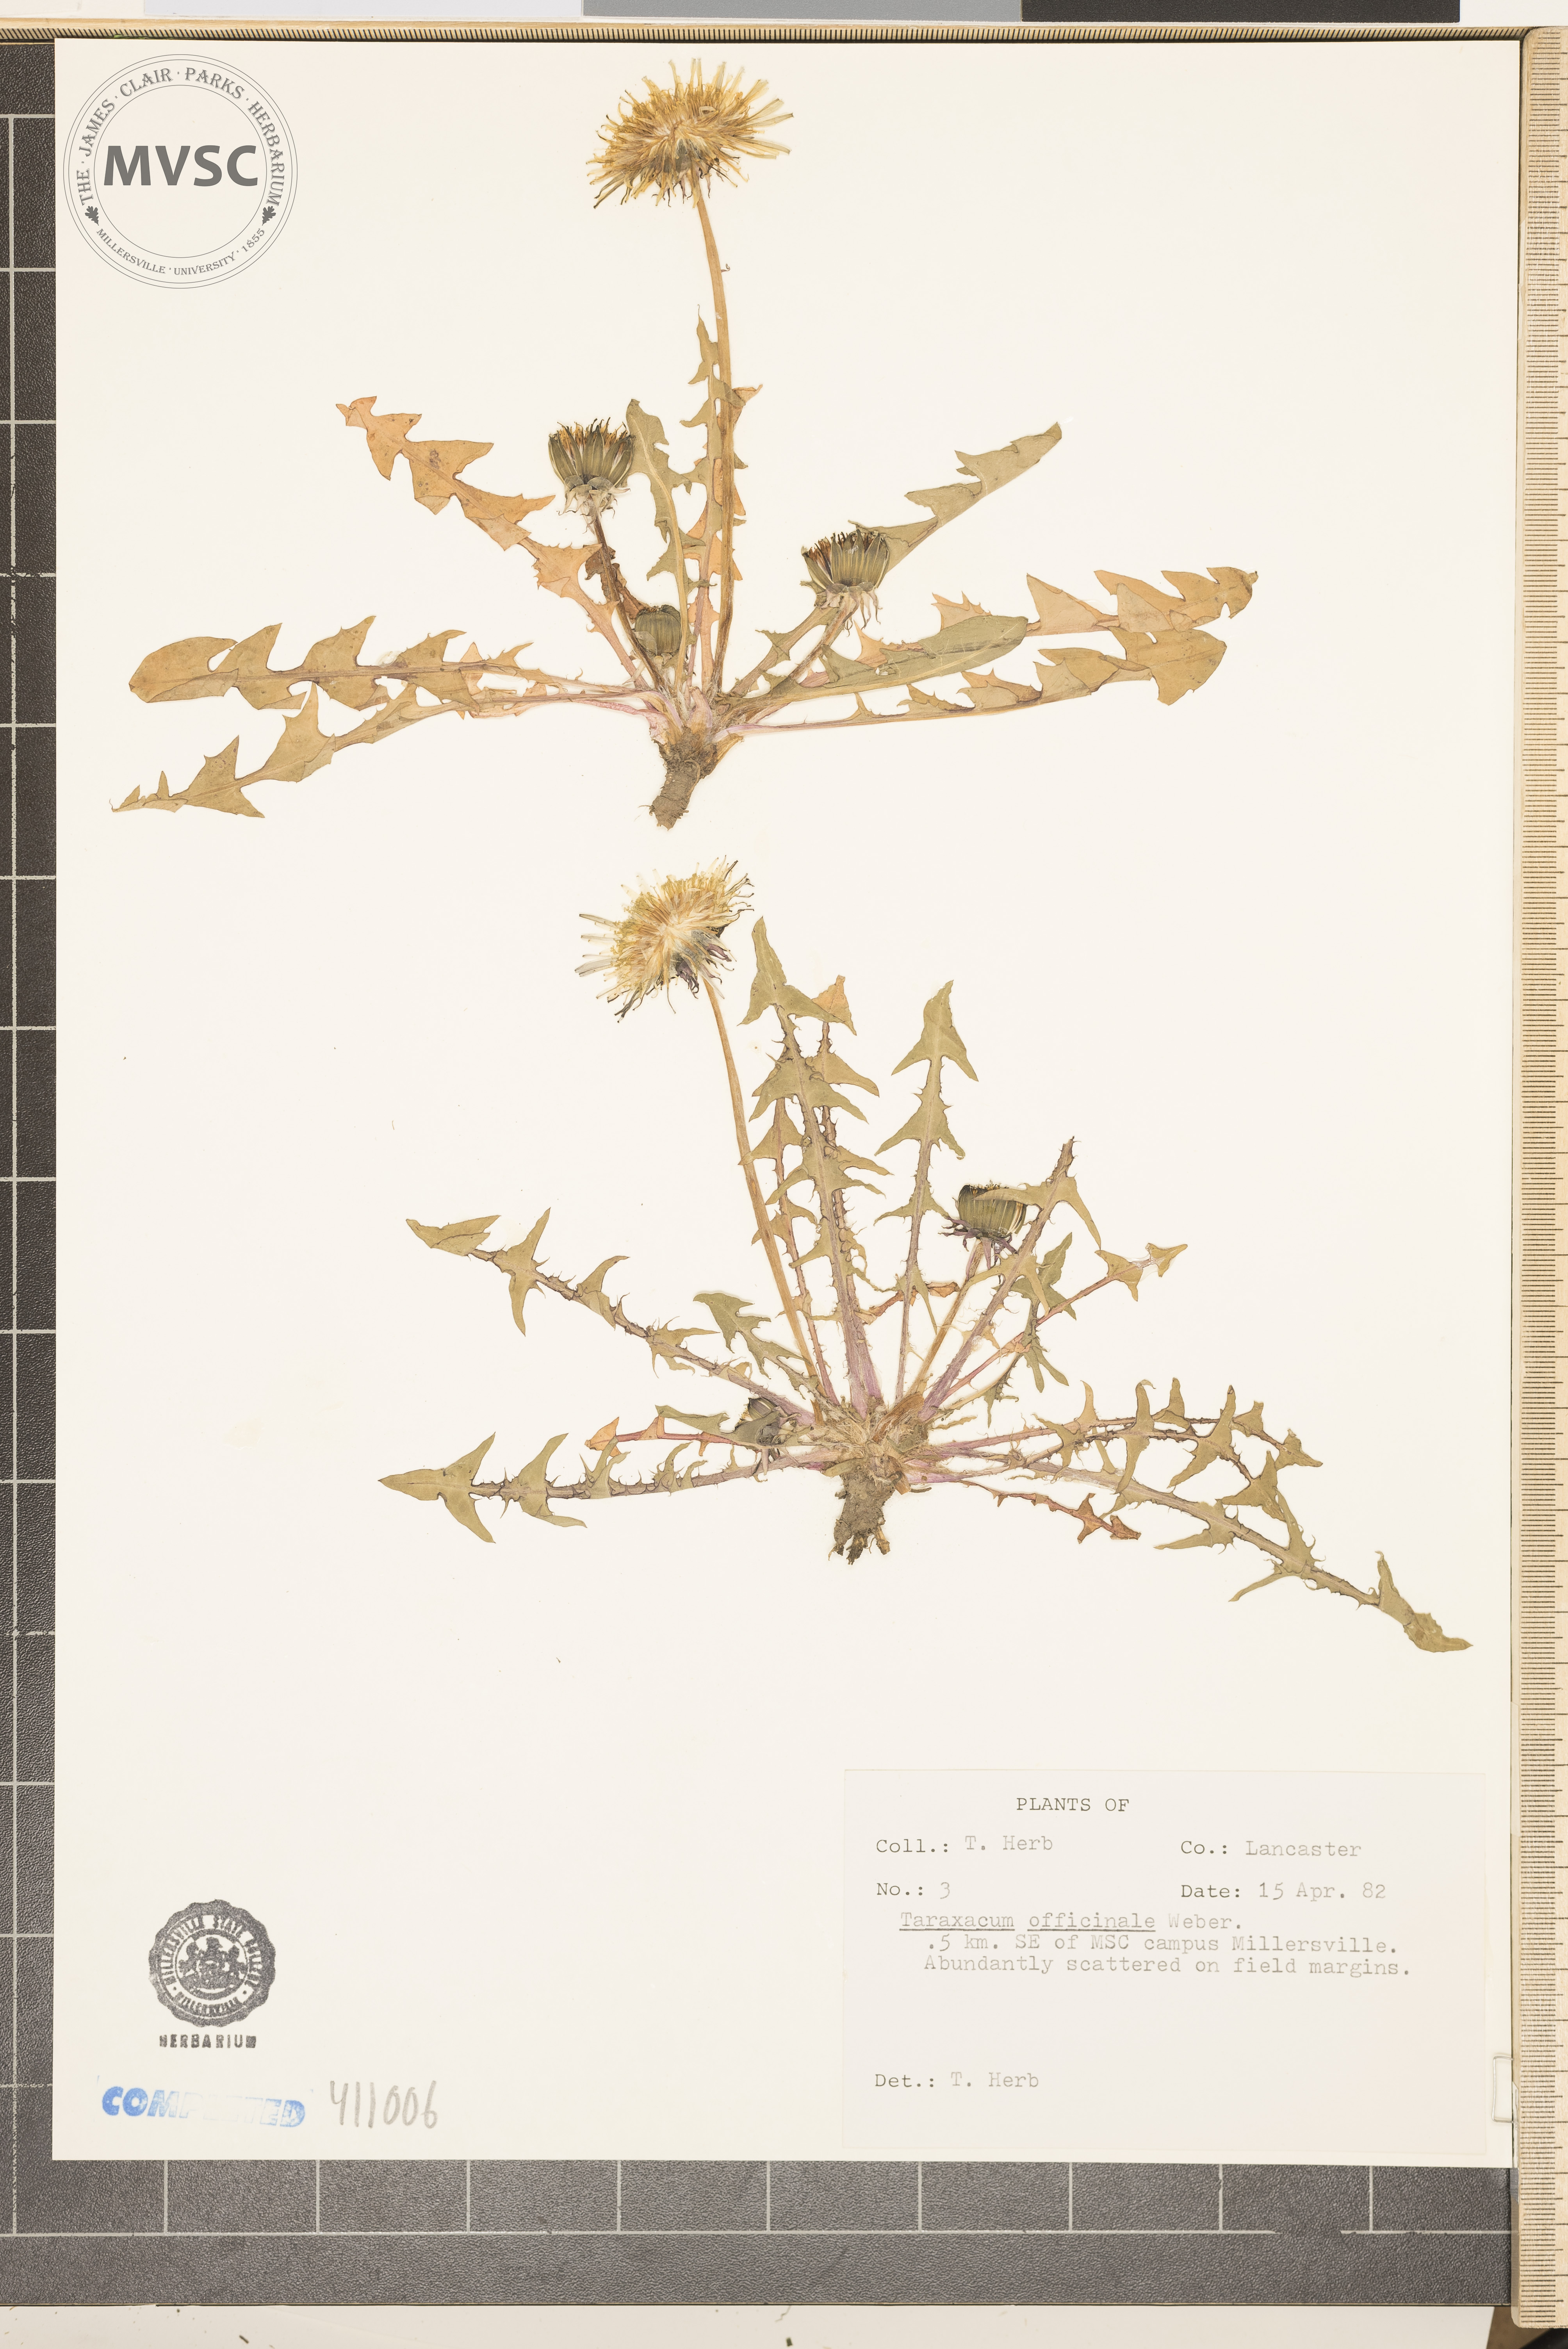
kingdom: Plantae
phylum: Tracheophyta
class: Magnoliopsida
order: Asterales
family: Asteraceae
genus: Taraxacum
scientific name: Taraxacum officinale
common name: Common dandelion
